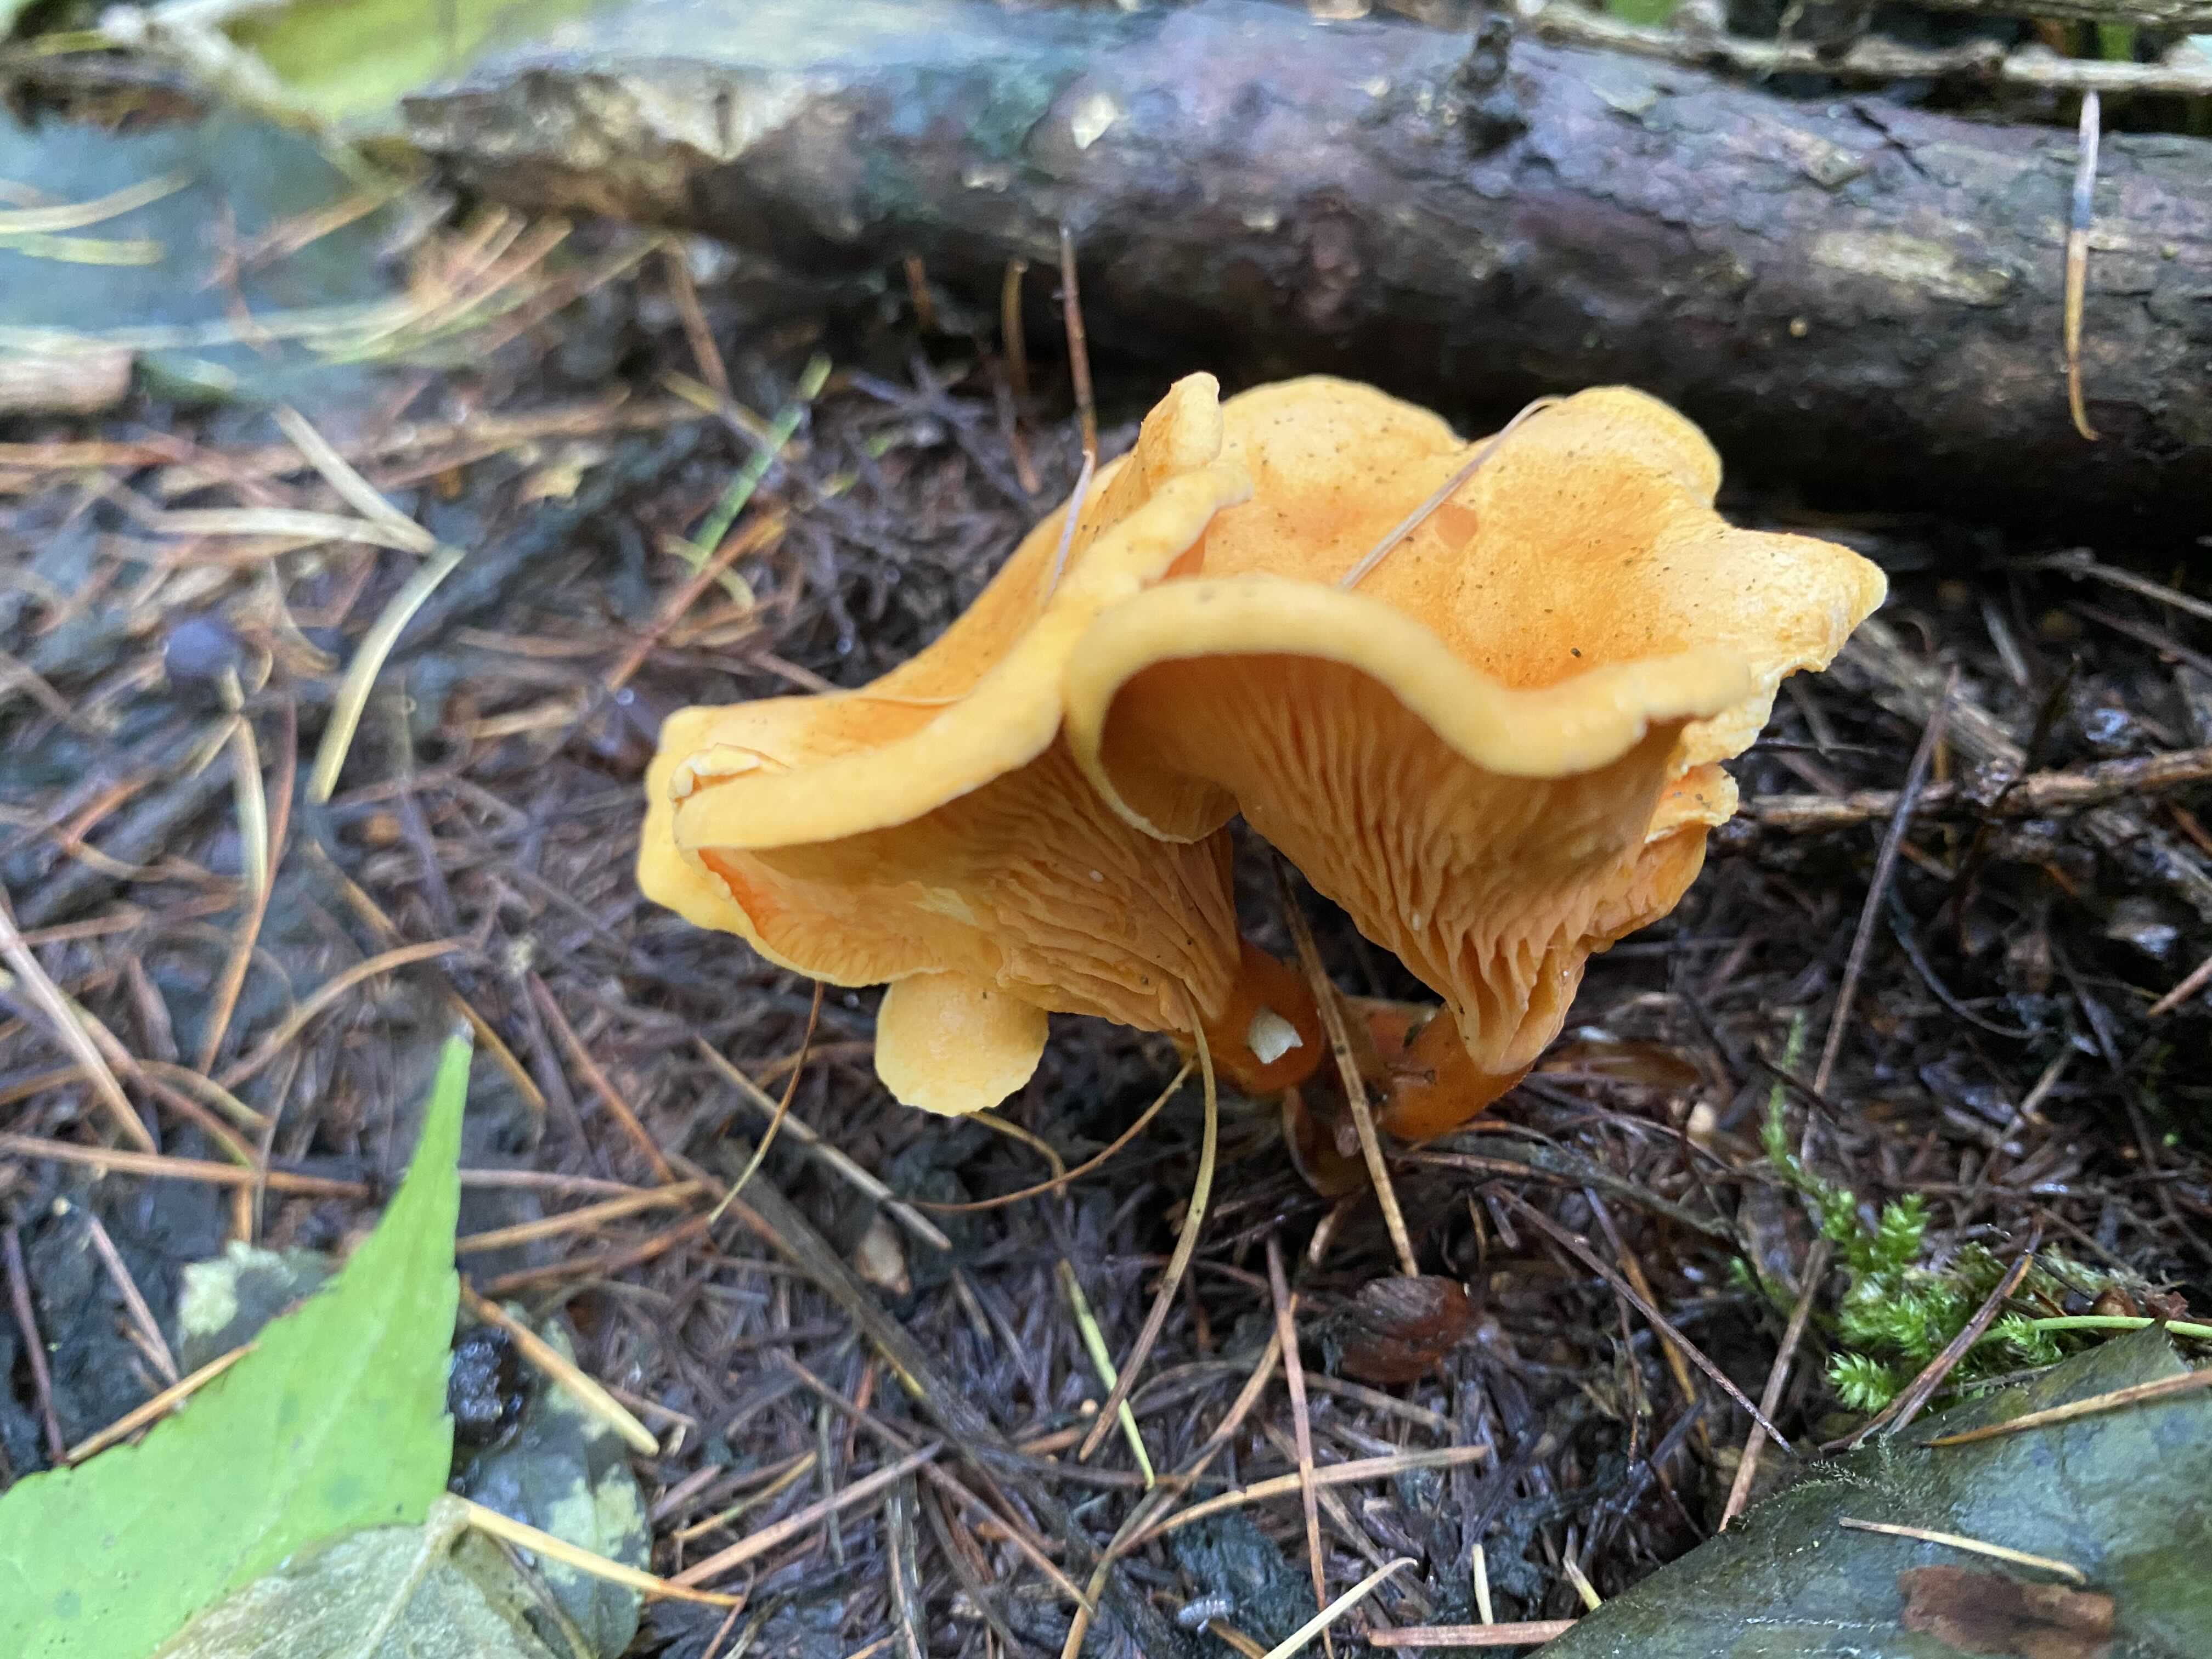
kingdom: Fungi
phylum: Basidiomycota
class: Agaricomycetes
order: Boletales
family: Hygrophoropsidaceae
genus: Hygrophoropsis
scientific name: Hygrophoropsis aurantiaca
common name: almindelig orangekantarel
